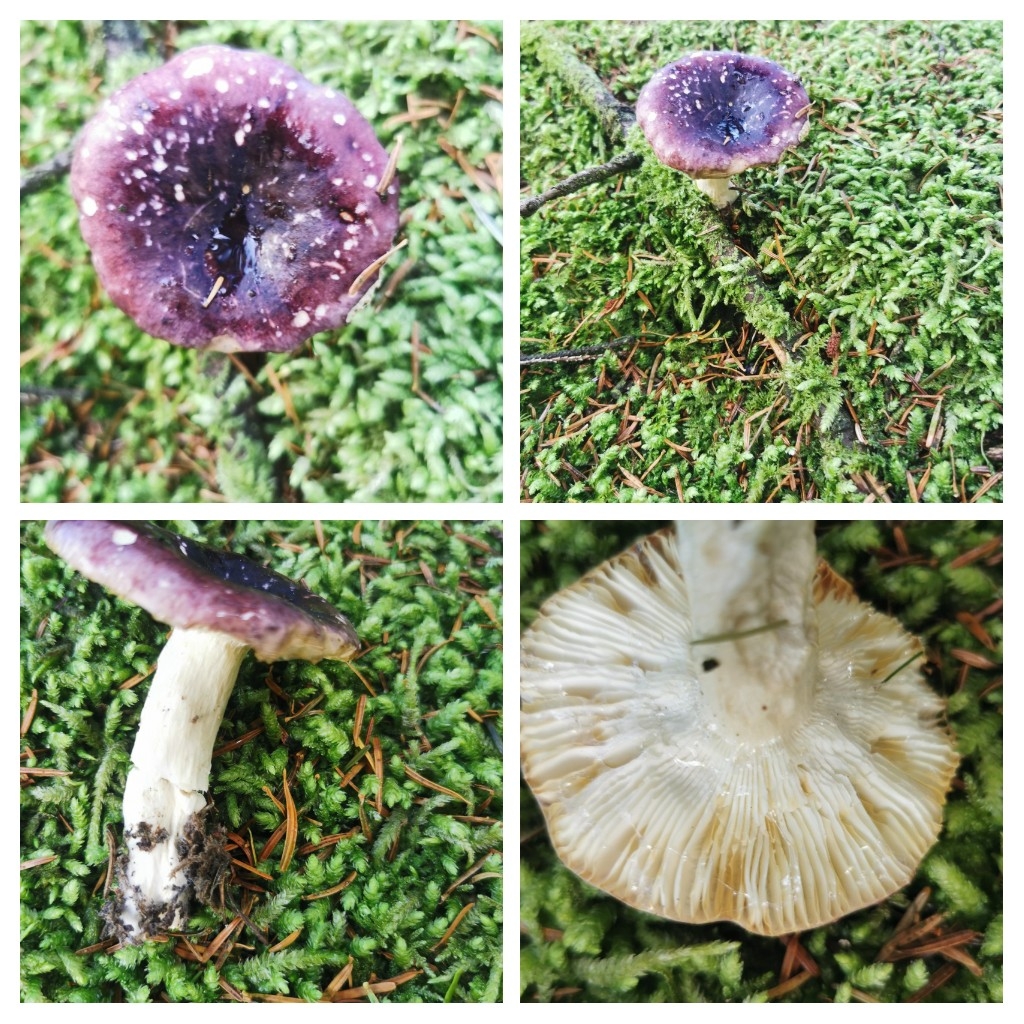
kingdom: Fungi
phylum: Basidiomycota
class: Agaricomycetes
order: Russulales
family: Russulaceae
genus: Russula
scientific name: Russula
